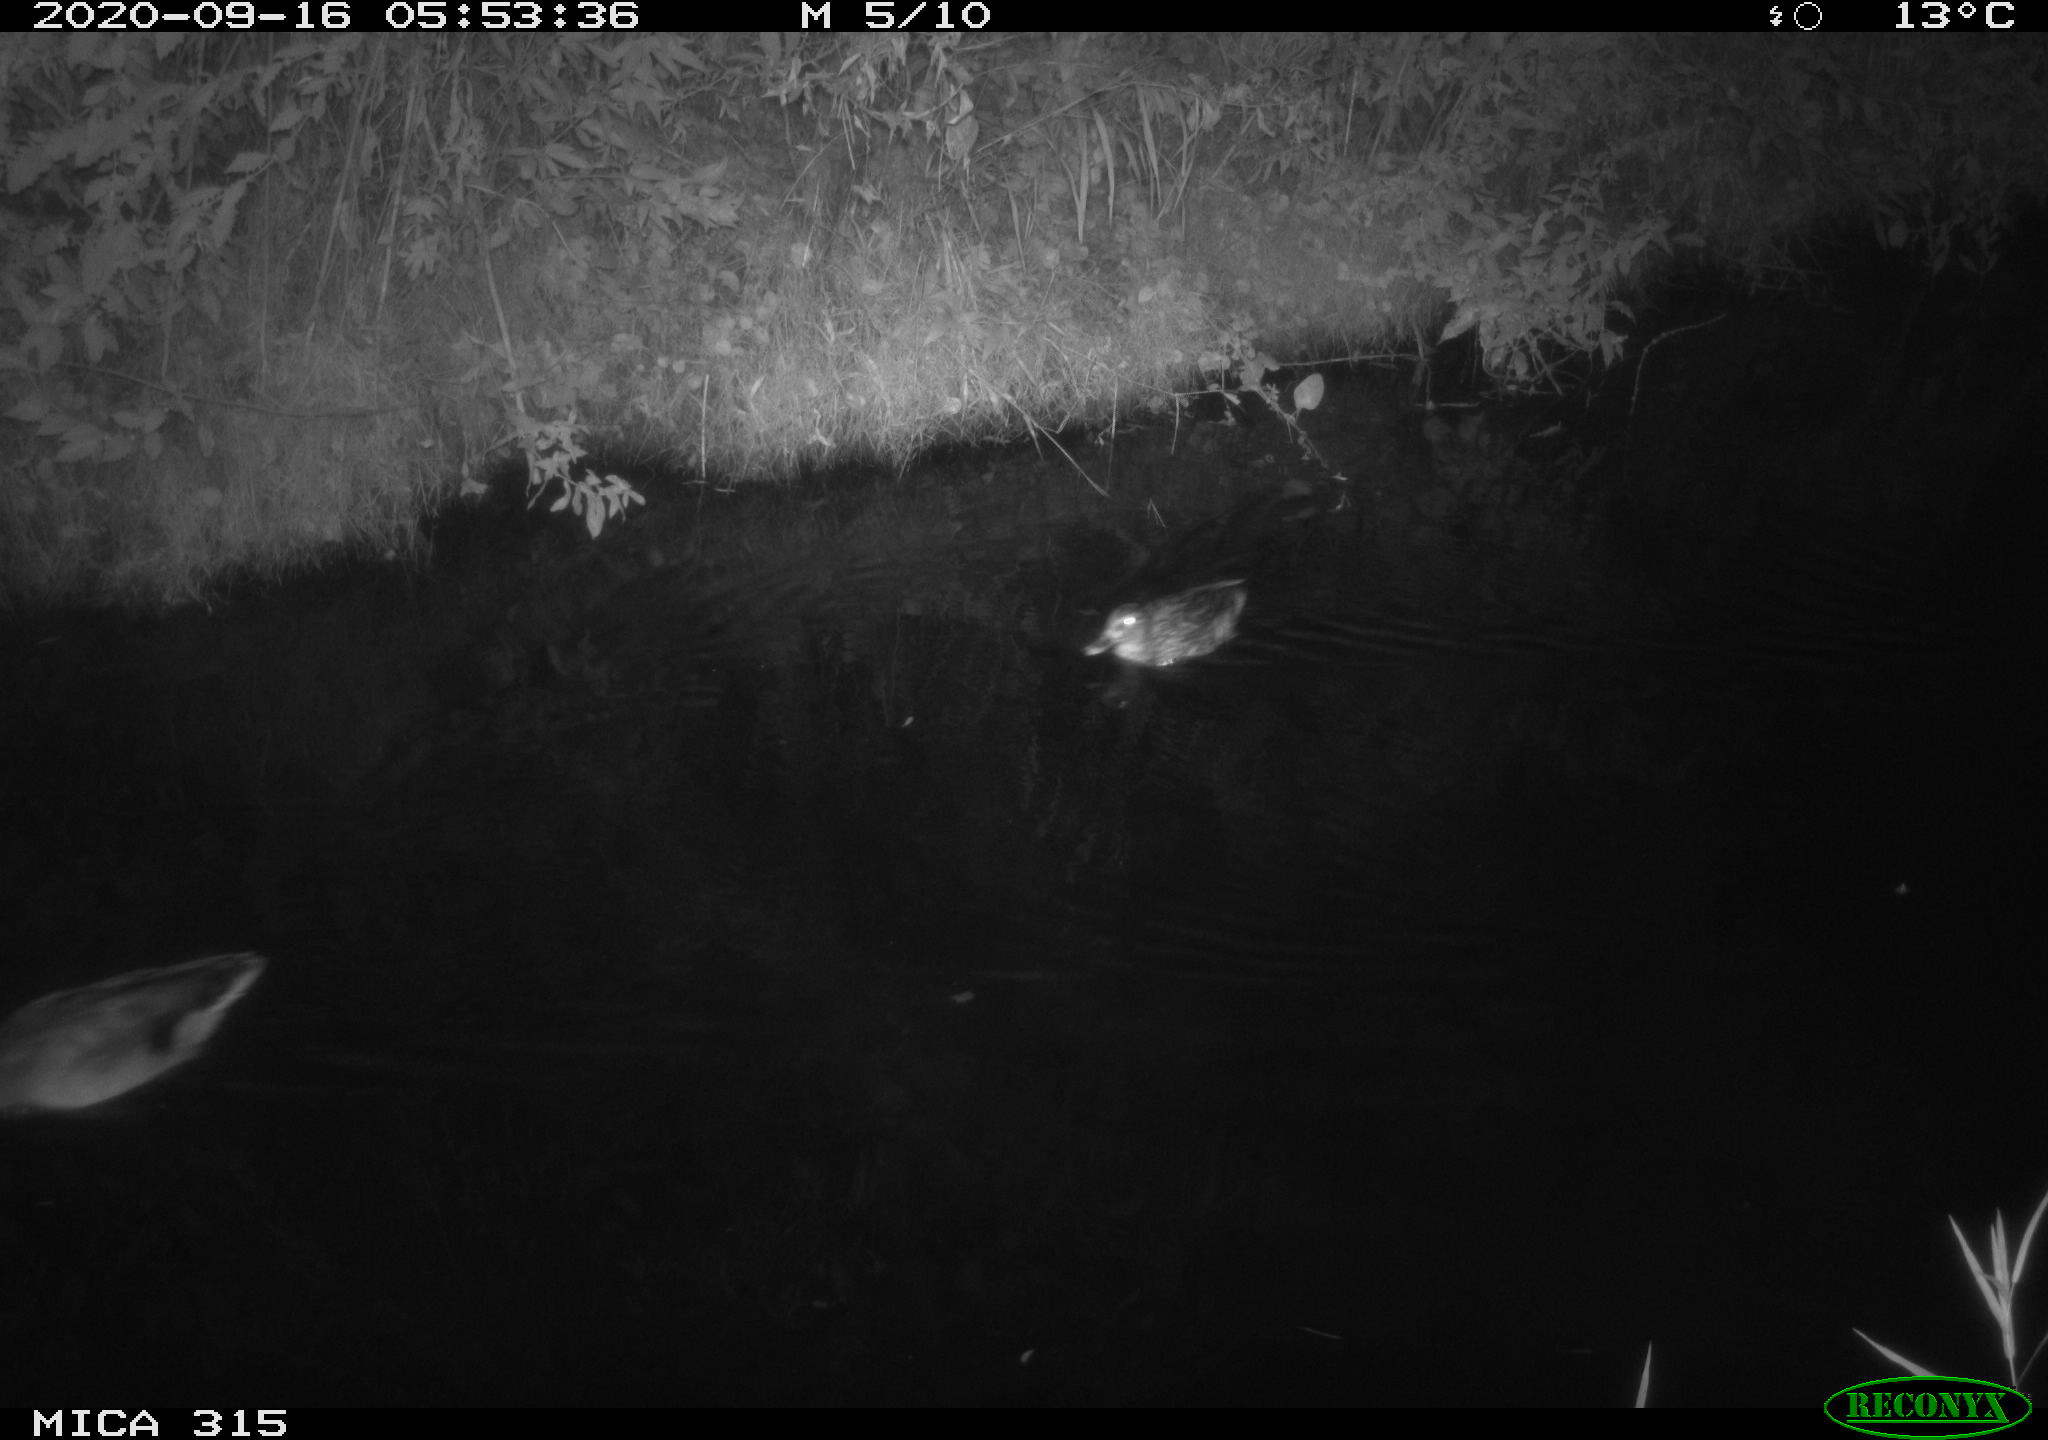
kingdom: Animalia
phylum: Chordata
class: Aves
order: Anseriformes
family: Anatidae
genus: Anas
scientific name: Anas platyrhynchos
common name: Mallard
